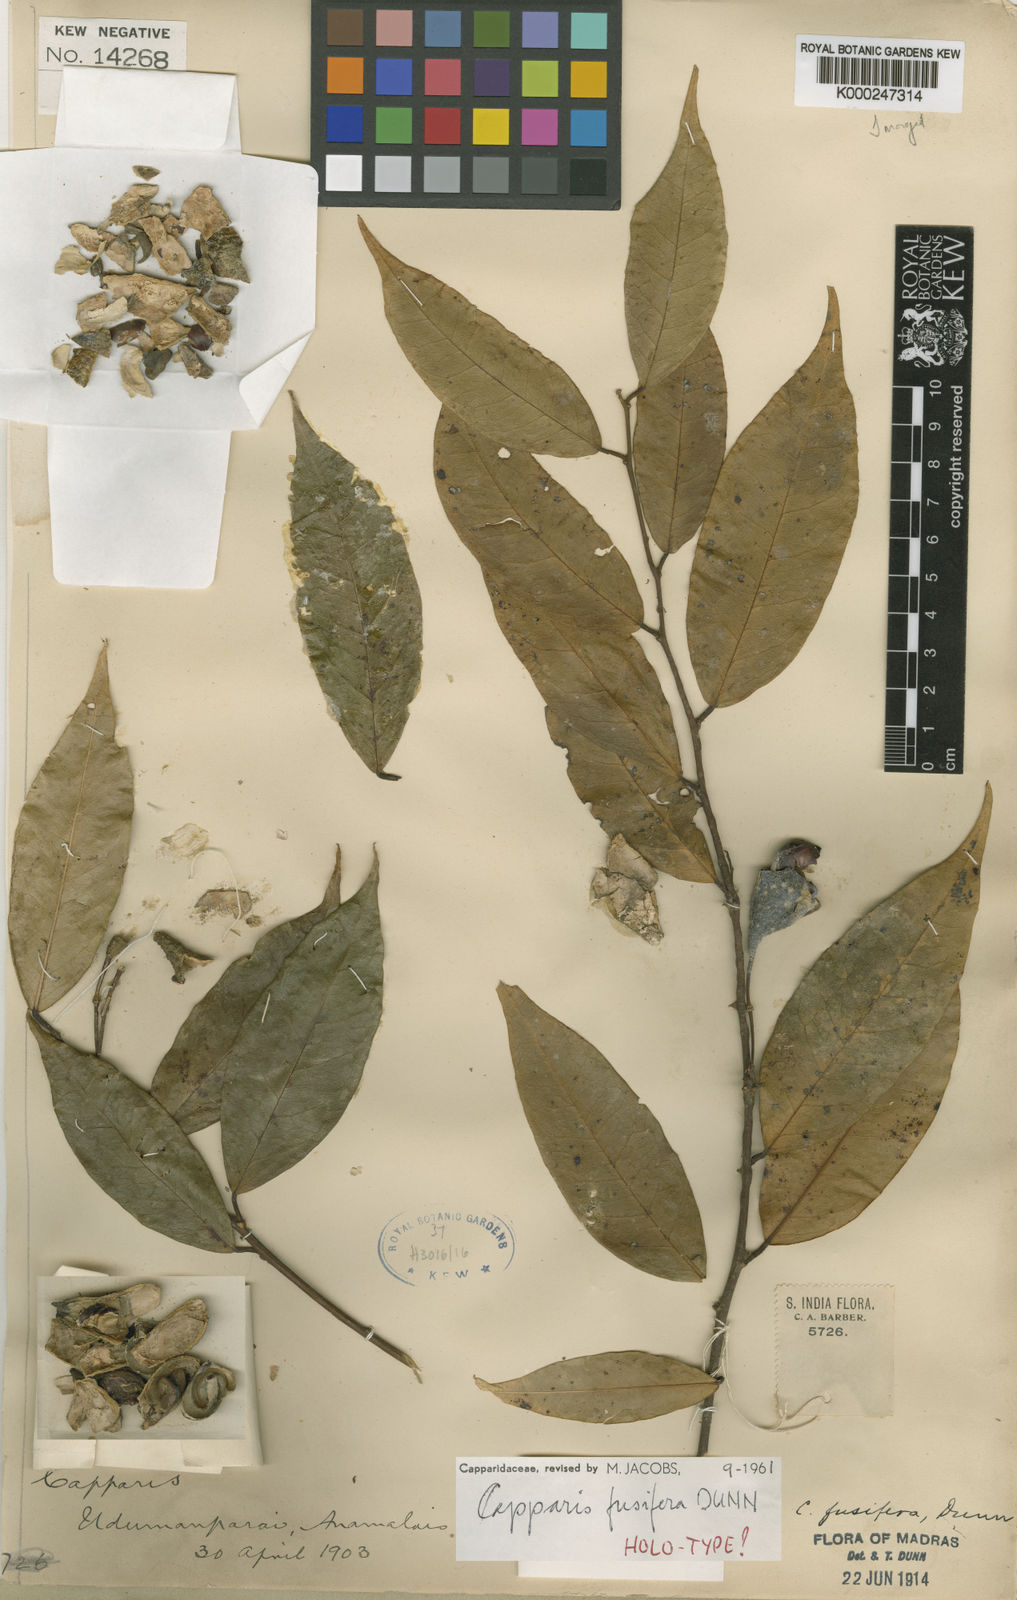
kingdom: Plantae
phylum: Tracheophyta
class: Magnoliopsida
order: Brassicales
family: Capparaceae
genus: Capparis
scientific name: Capparis fusifera
